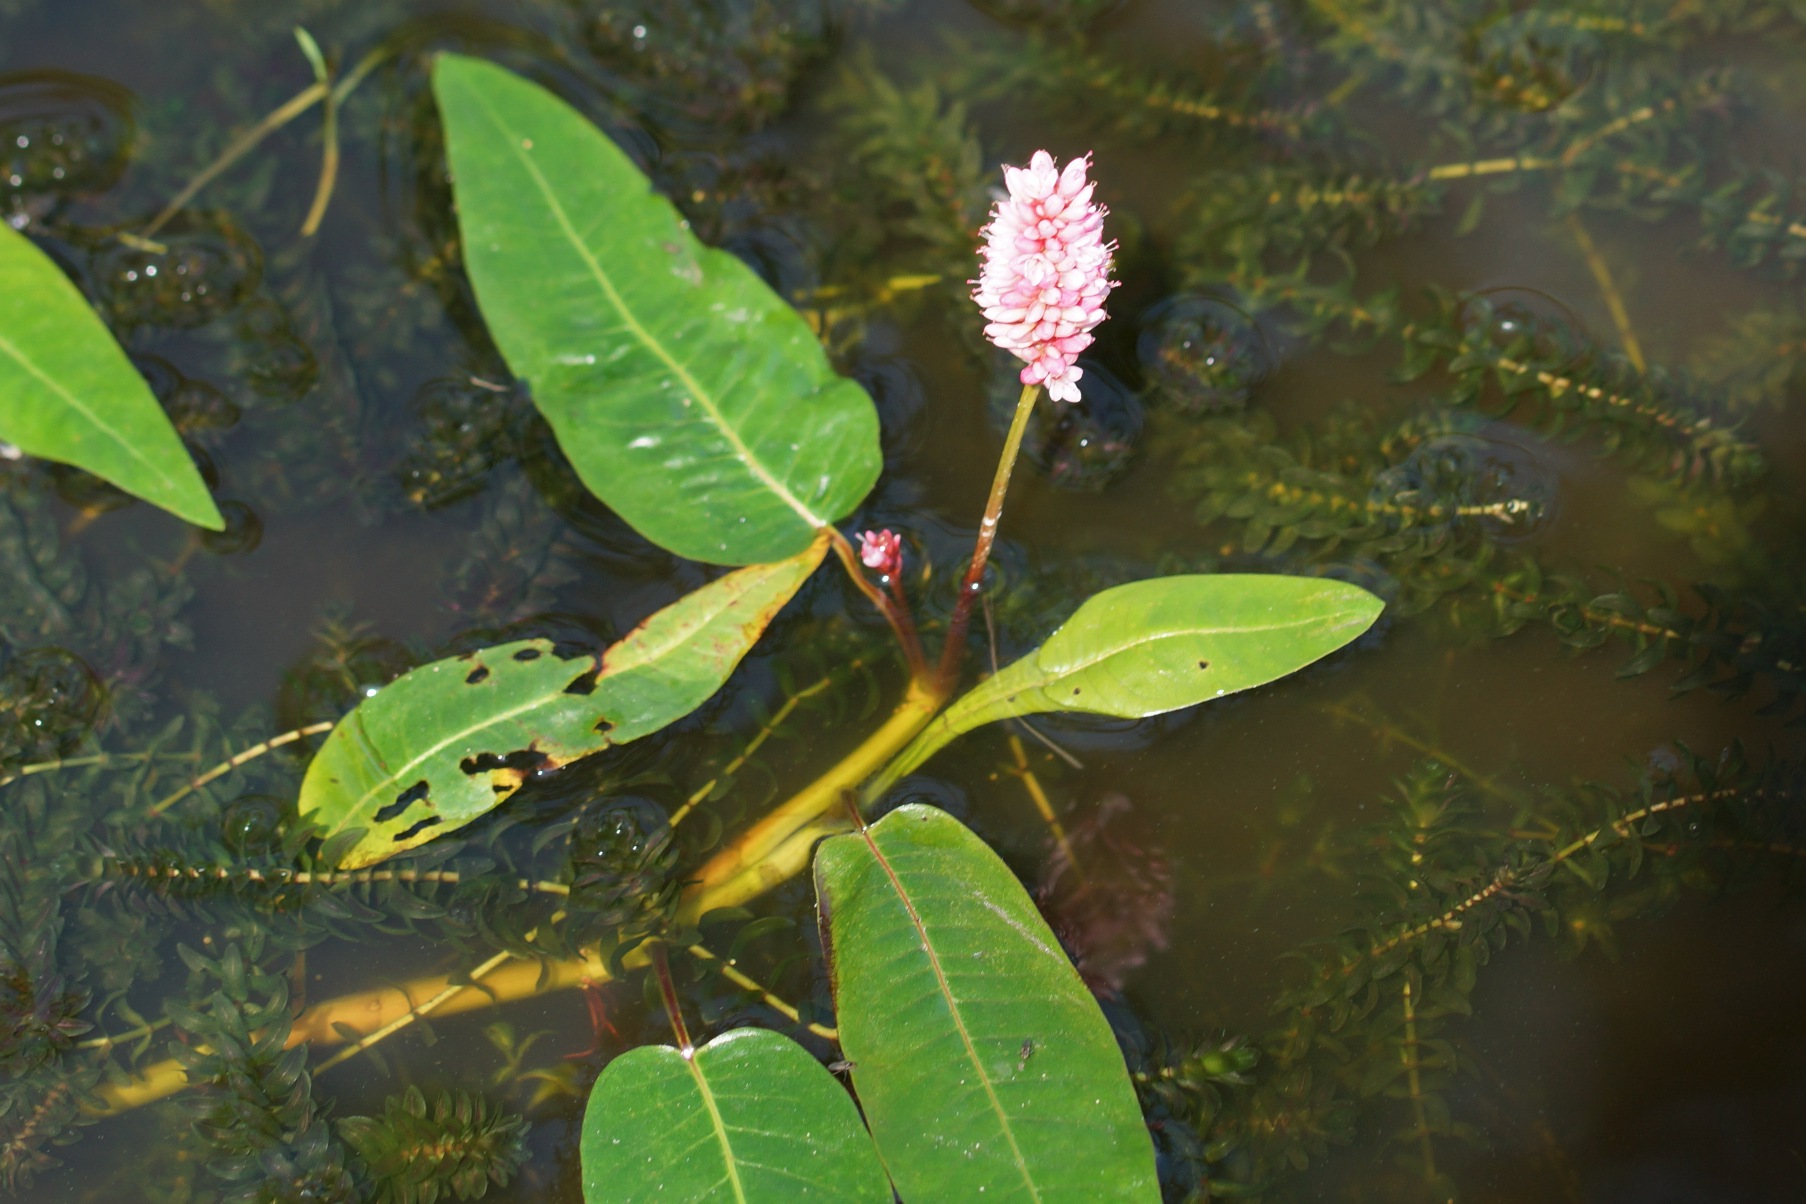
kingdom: Plantae
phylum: Tracheophyta
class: Magnoliopsida
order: Caryophyllales
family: Polygonaceae
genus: Persicaria
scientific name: Persicaria amphibia
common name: Vand-pileurt
